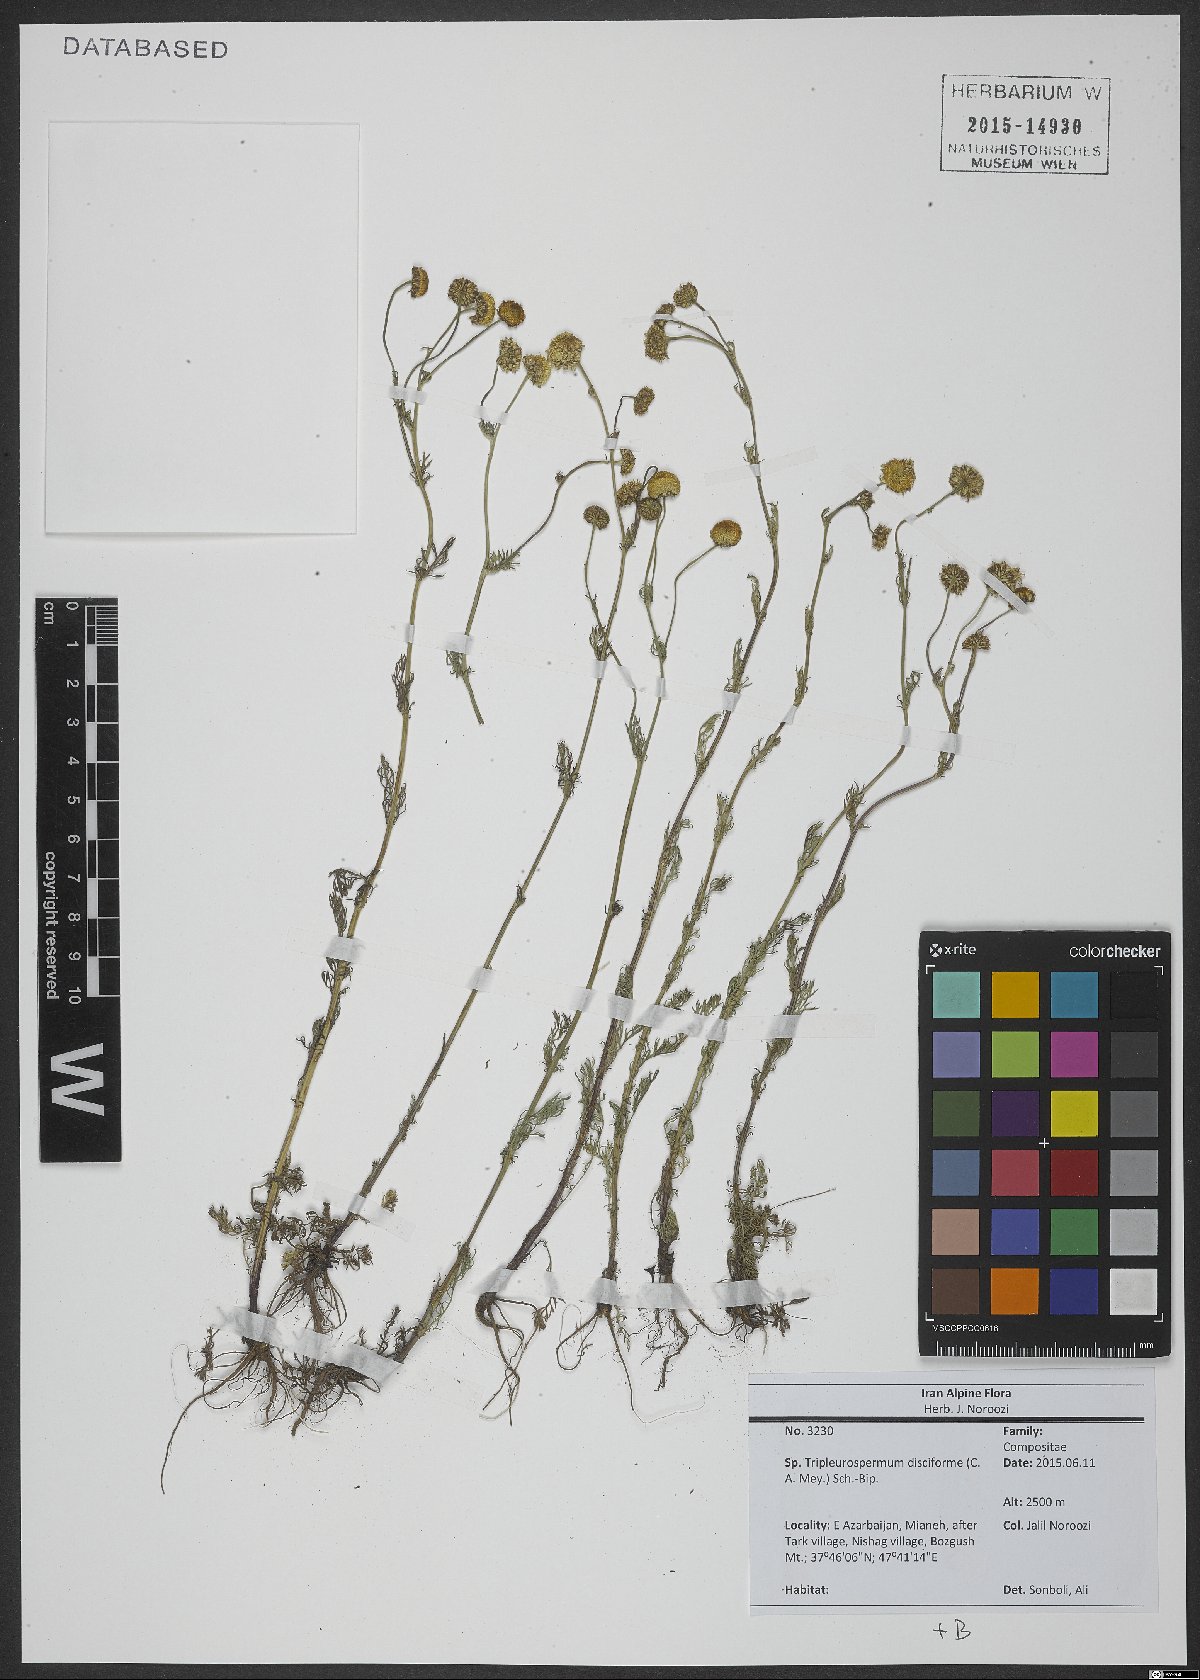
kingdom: Plantae
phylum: Tracheophyta
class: Magnoliopsida
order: Asterales
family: Asteraceae
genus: Tripleurospermum
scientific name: Tripleurospermum disciforme
